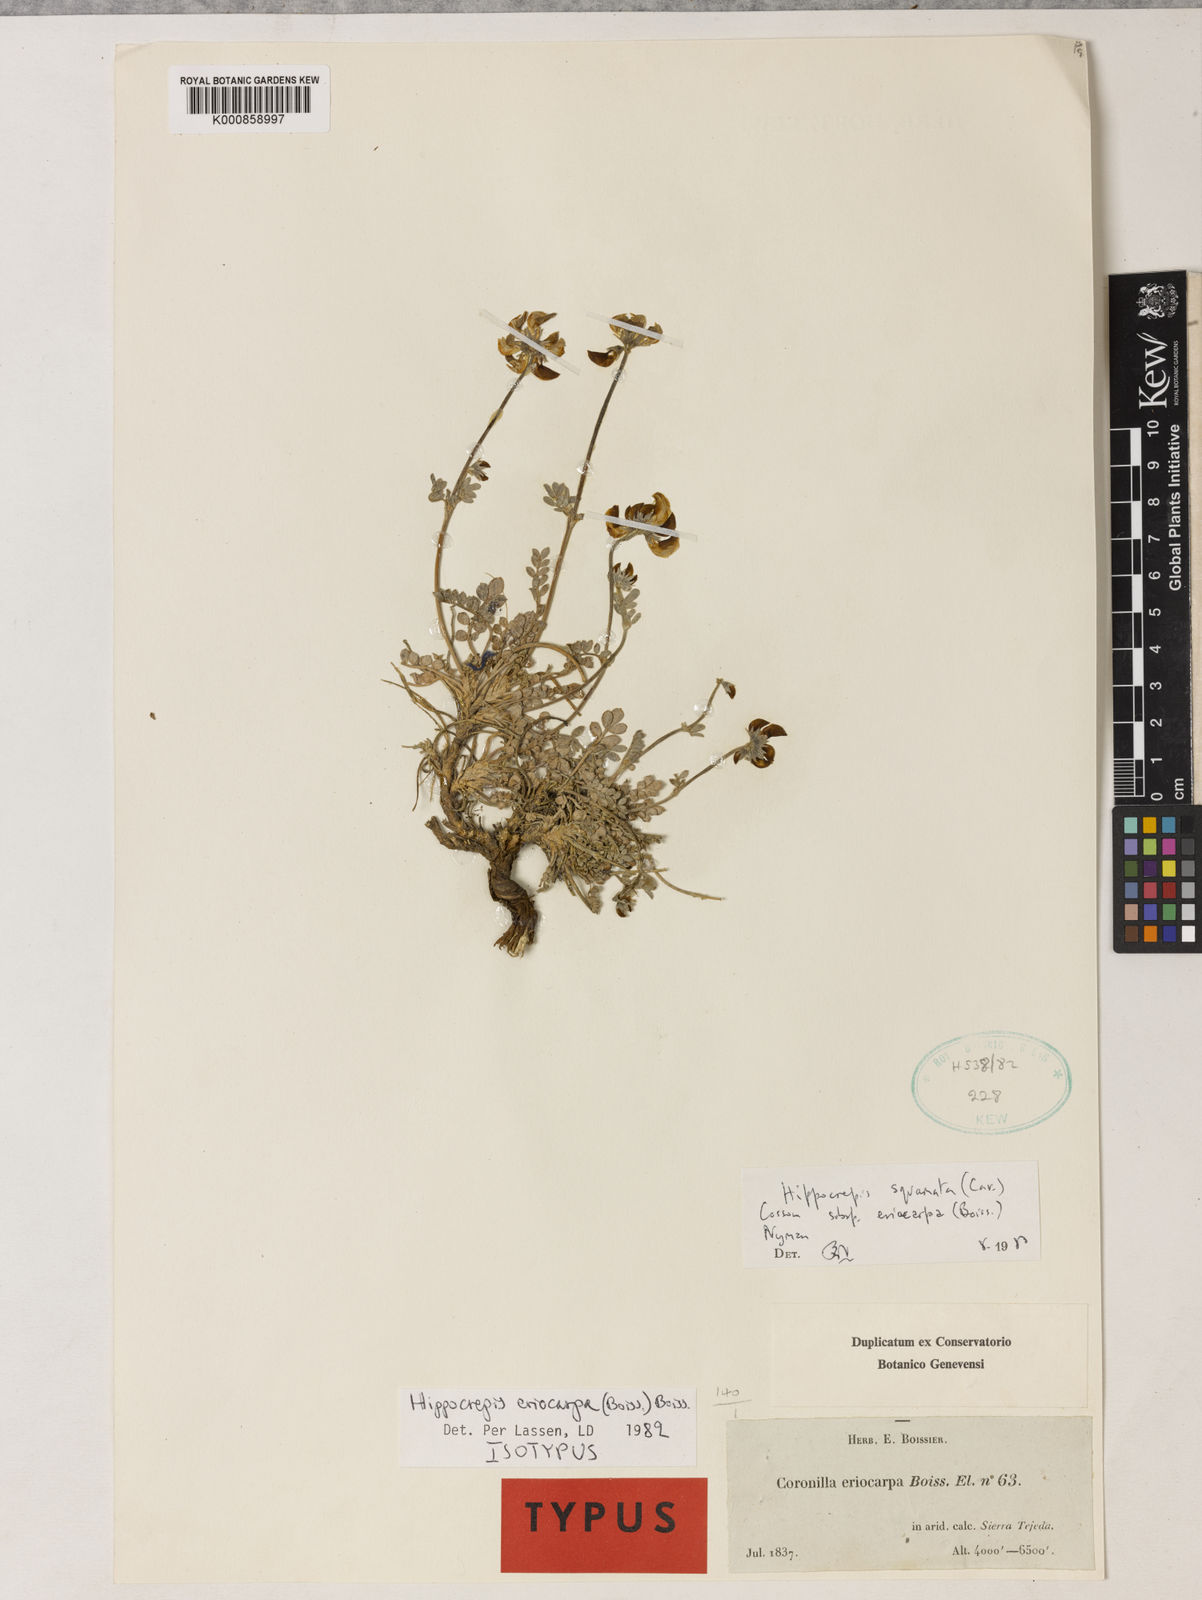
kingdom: Plantae
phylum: Tracheophyta
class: Magnoliopsida
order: Fabales
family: Fabaceae
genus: Hippocrepis
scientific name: Hippocrepis eriocarpa
